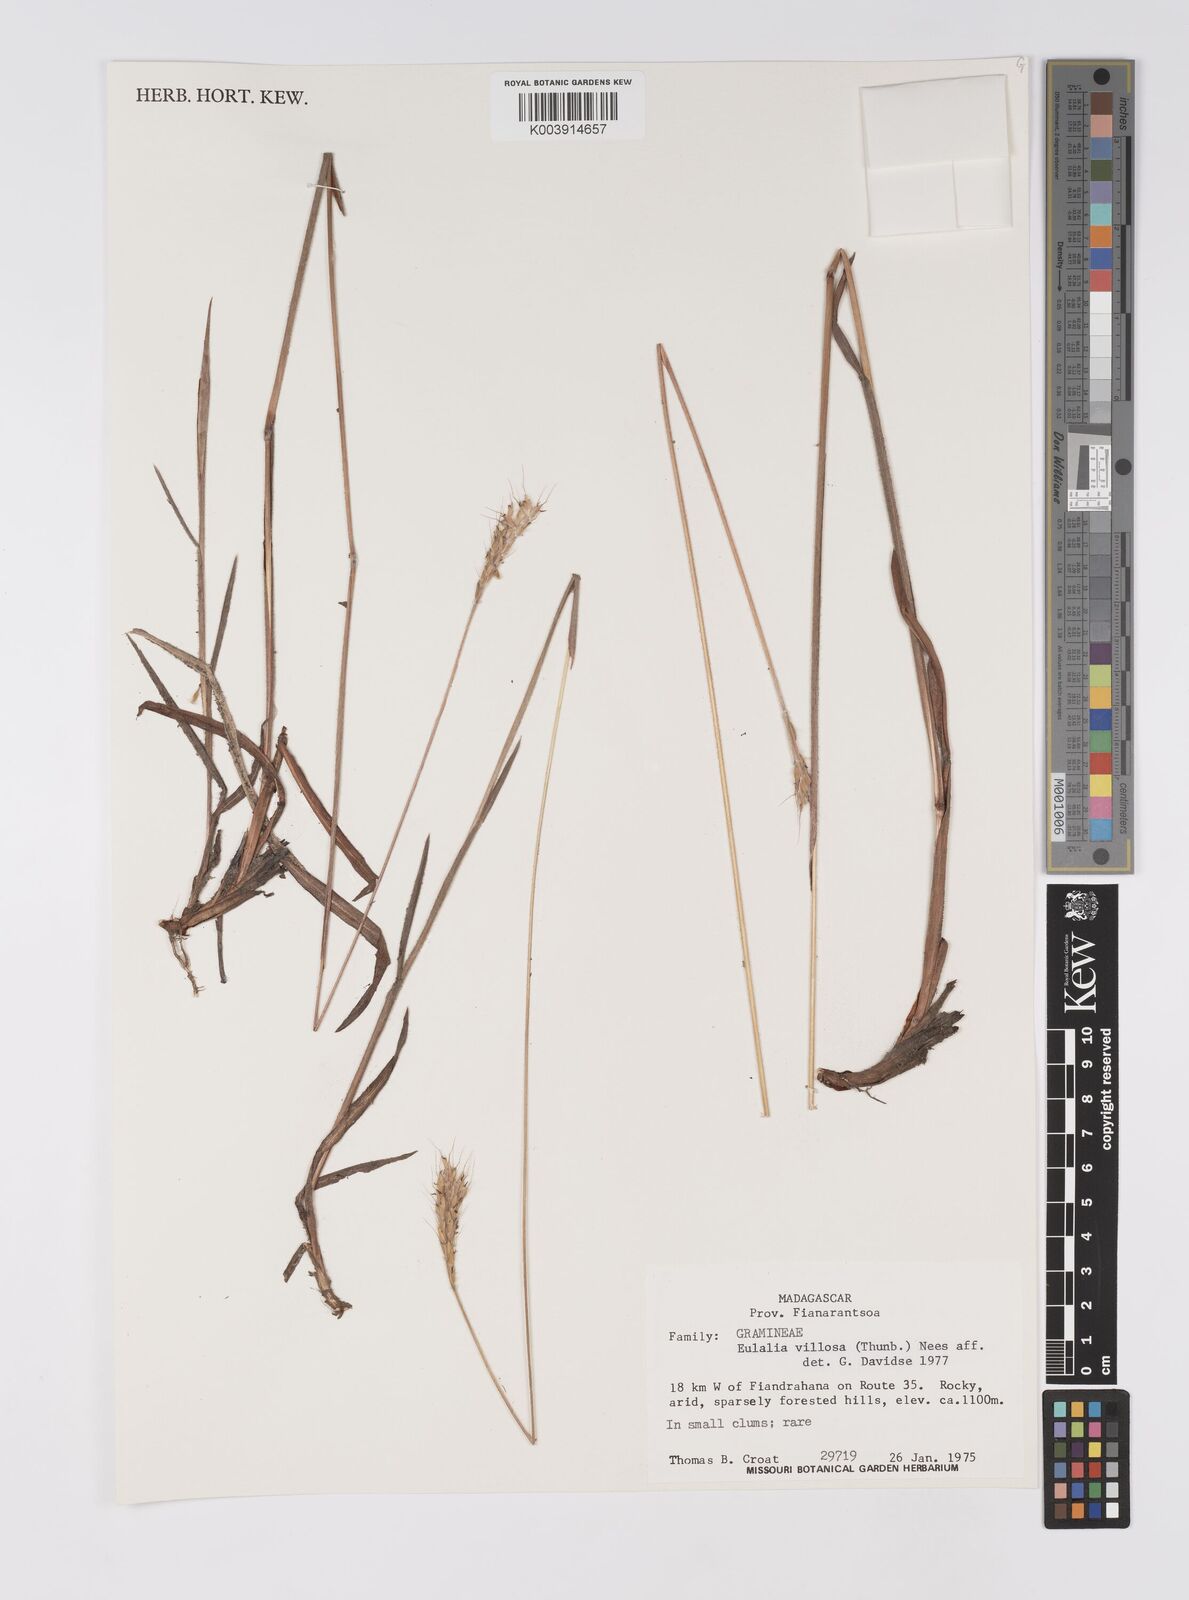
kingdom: Plantae
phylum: Tracheophyta
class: Liliopsida
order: Poales
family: Poaceae
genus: Eulalia
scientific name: Eulalia villosa
